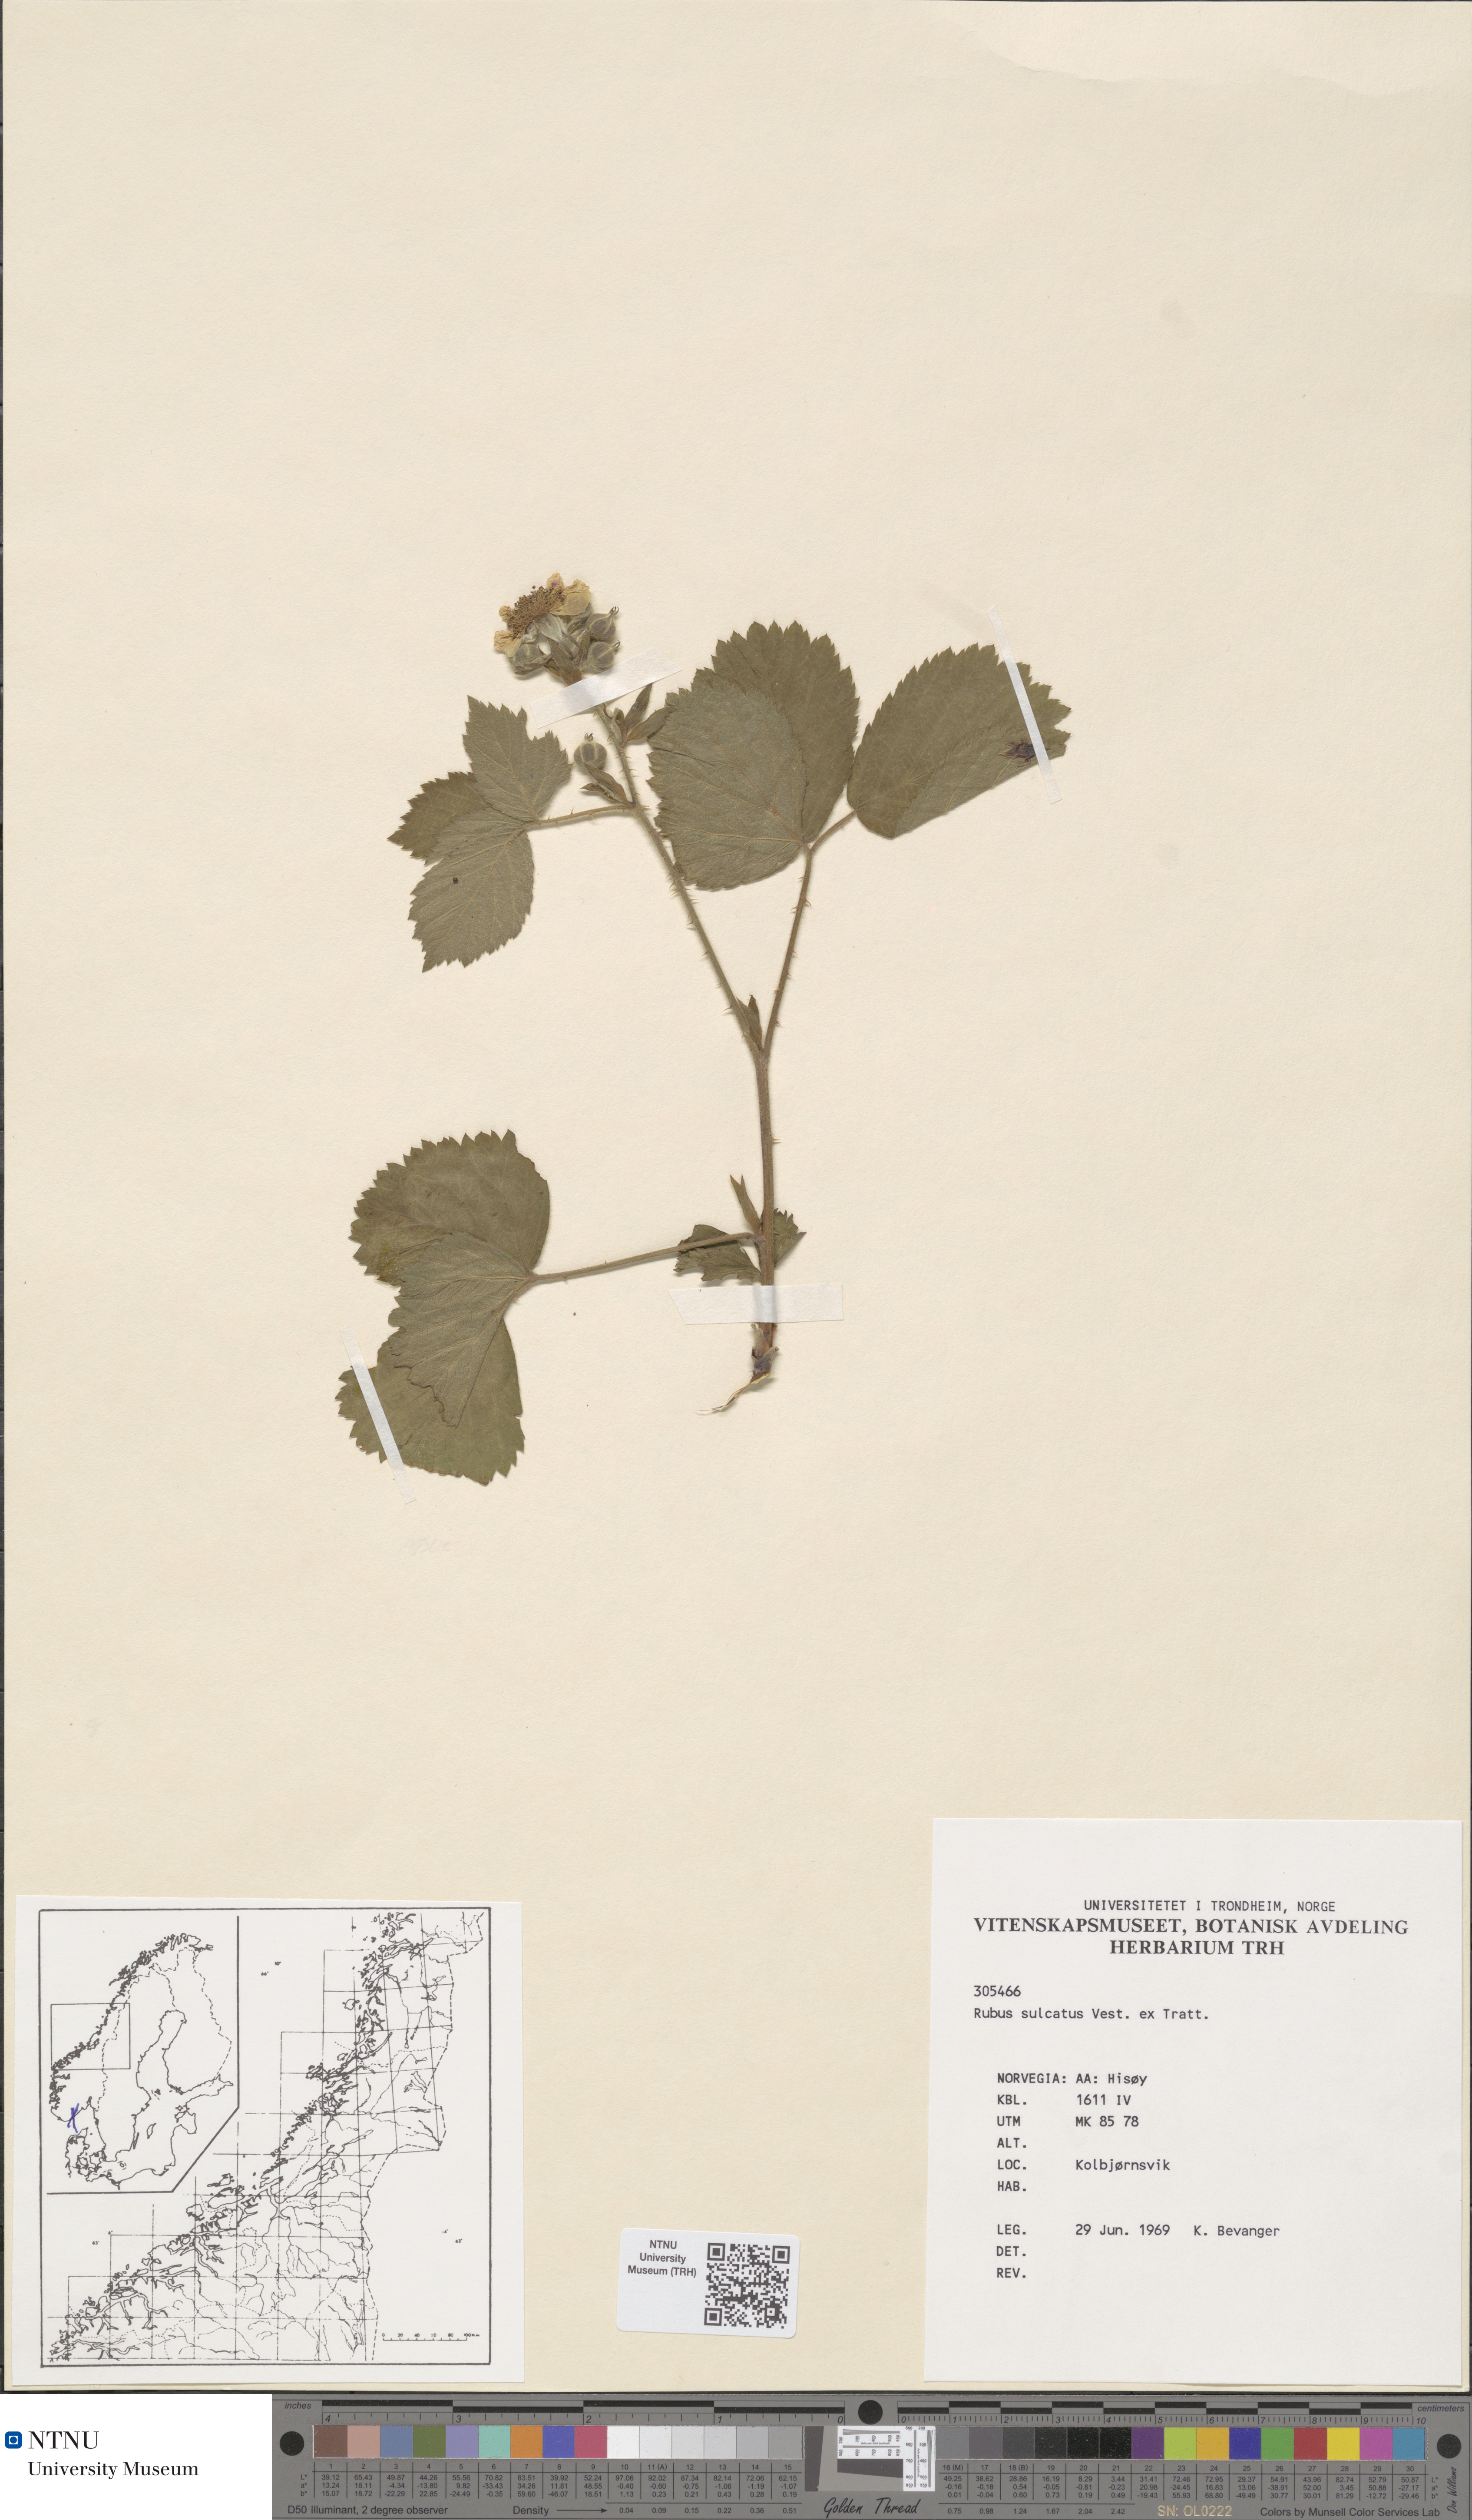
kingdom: Plantae
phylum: Tracheophyta
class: Magnoliopsida
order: Rosales
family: Rosaceae
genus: Rubus
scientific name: Rubus sulcatus
